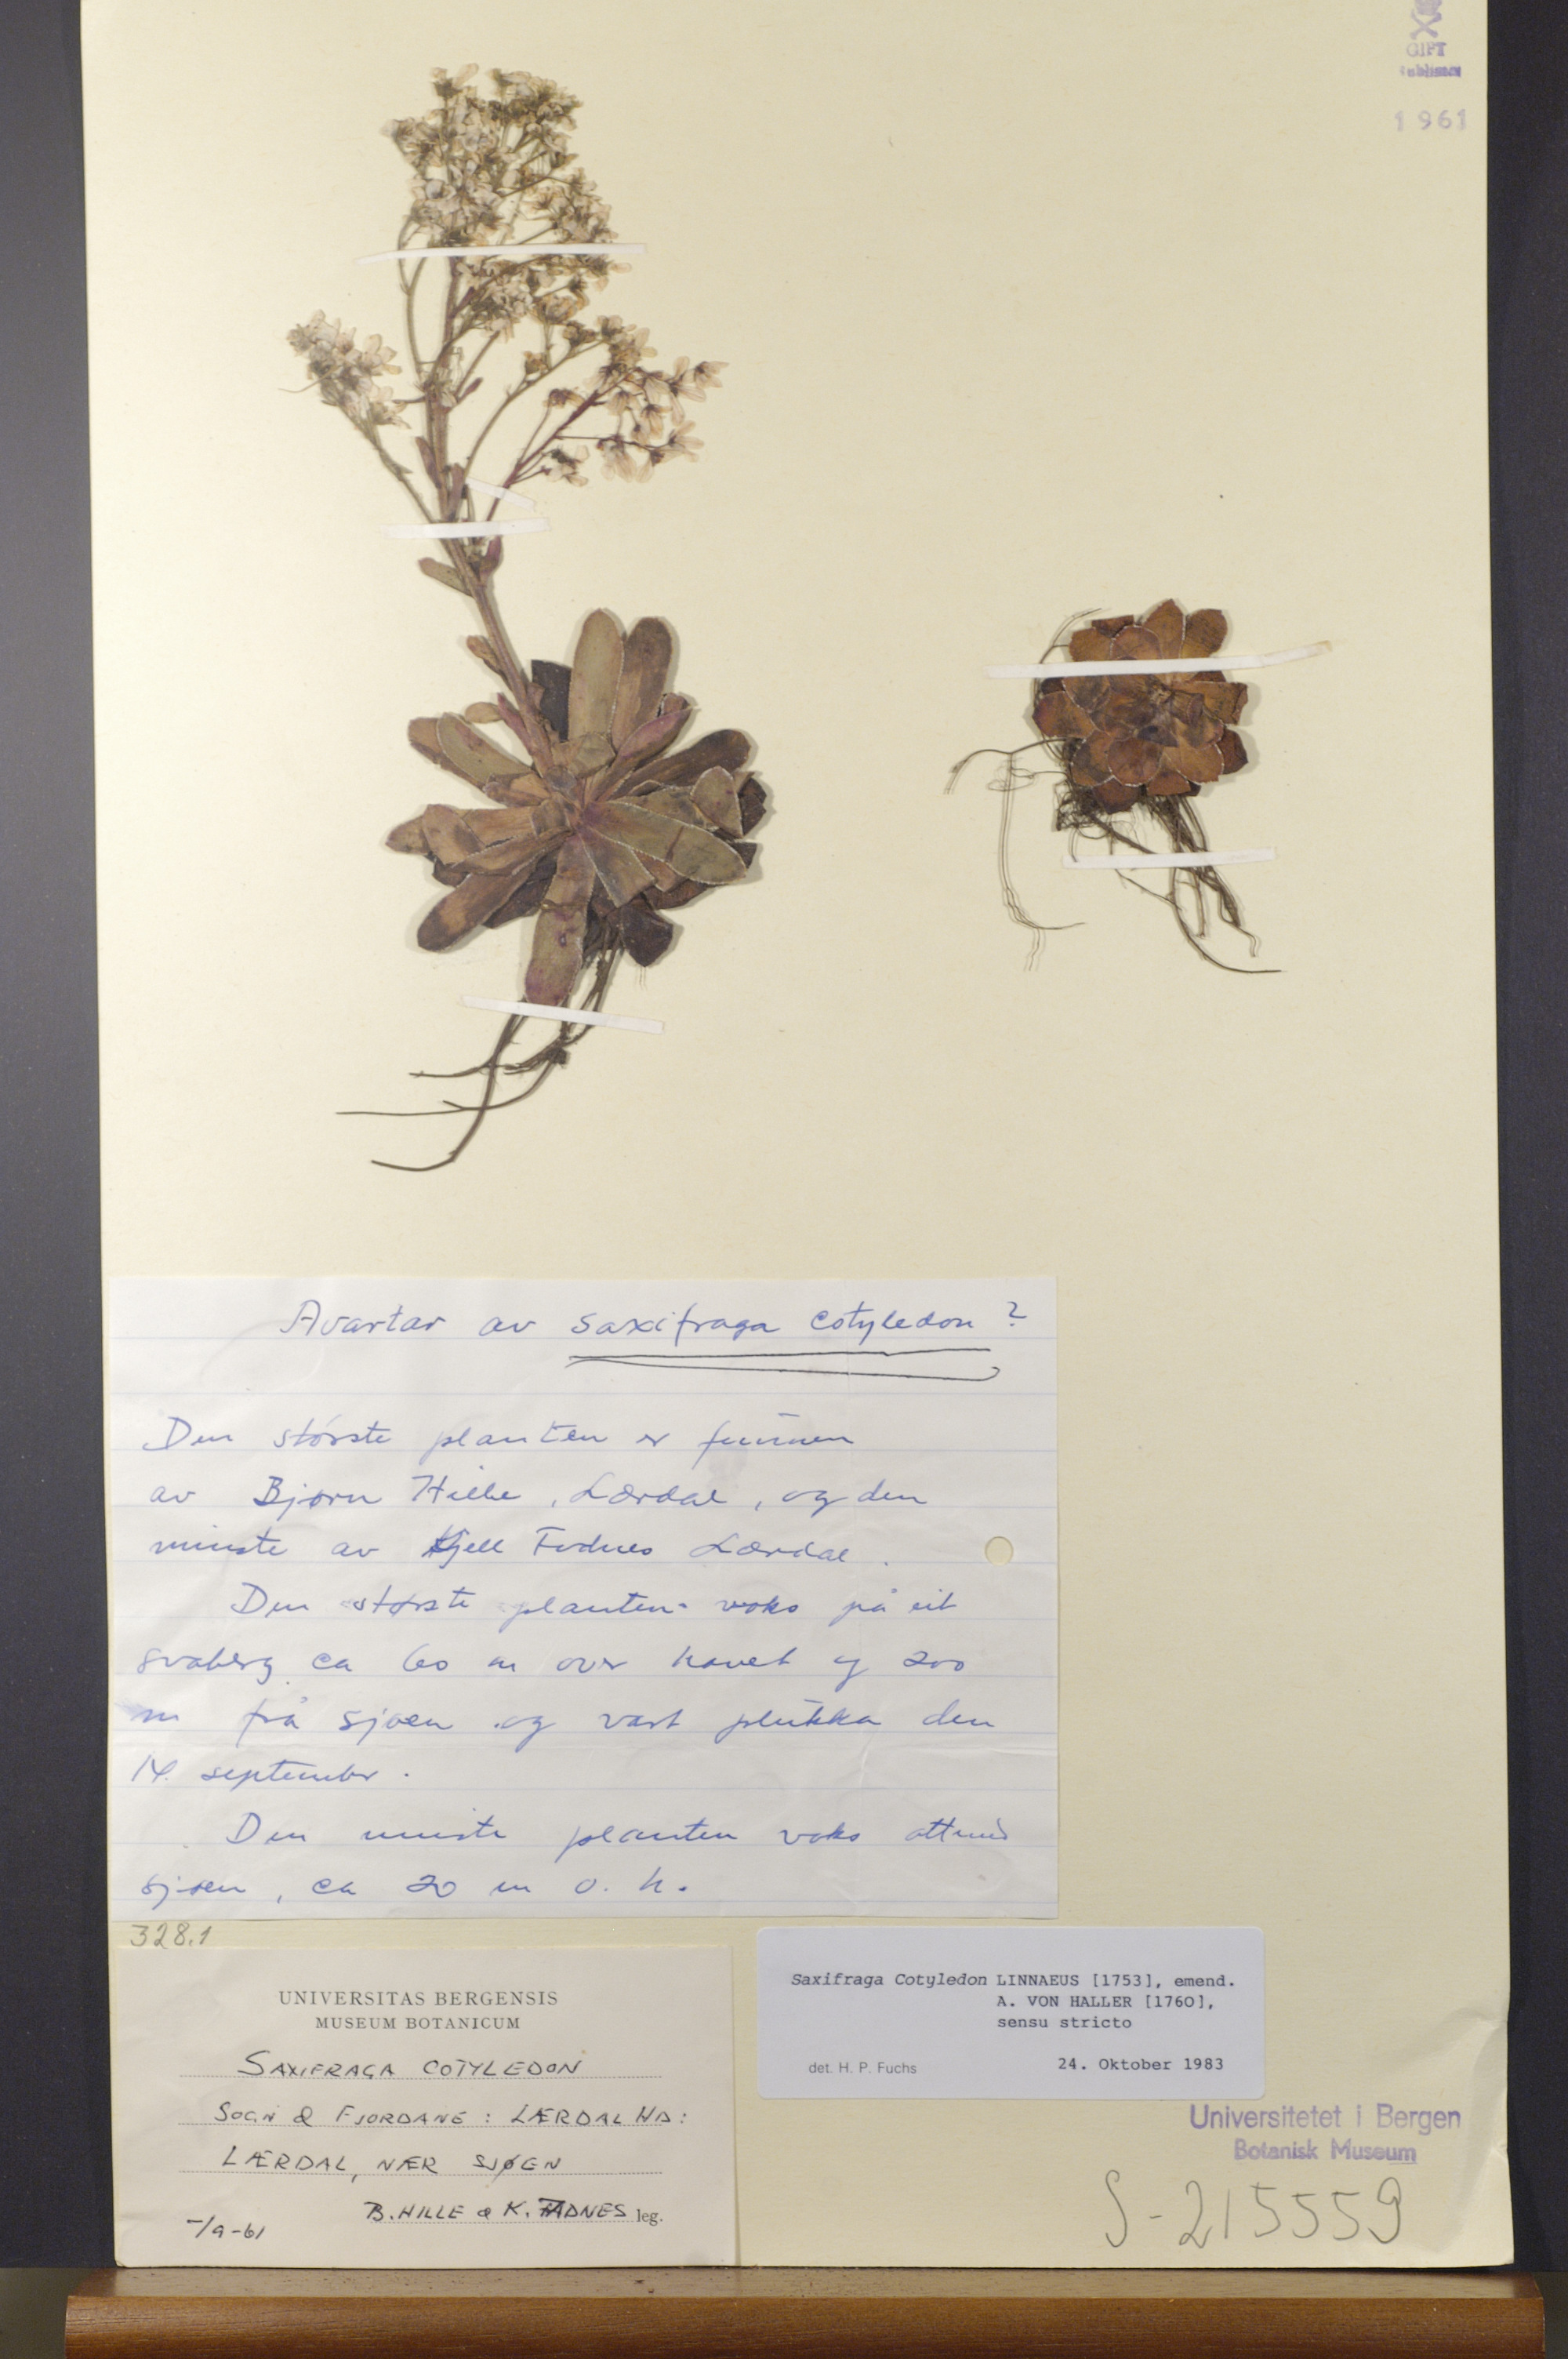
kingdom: Plantae
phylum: Tracheophyta
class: Magnoliopsida
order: Saxifragales
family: Saxifragaceae
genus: Saxifraga
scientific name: Saxifraga cotyledon
